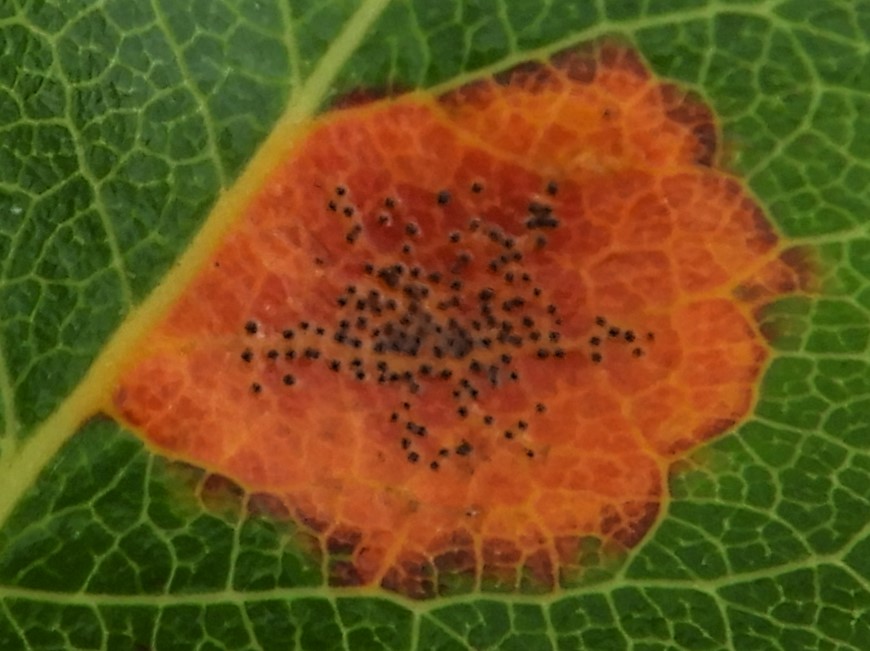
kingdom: Fungi
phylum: Basidiomycota
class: Pucciniomycetes
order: Pucciniales
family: Gymnosporangiaceae
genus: Gymnosporangium
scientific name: Gymnosporangium sabinae
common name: pæregitter-bævrerust
